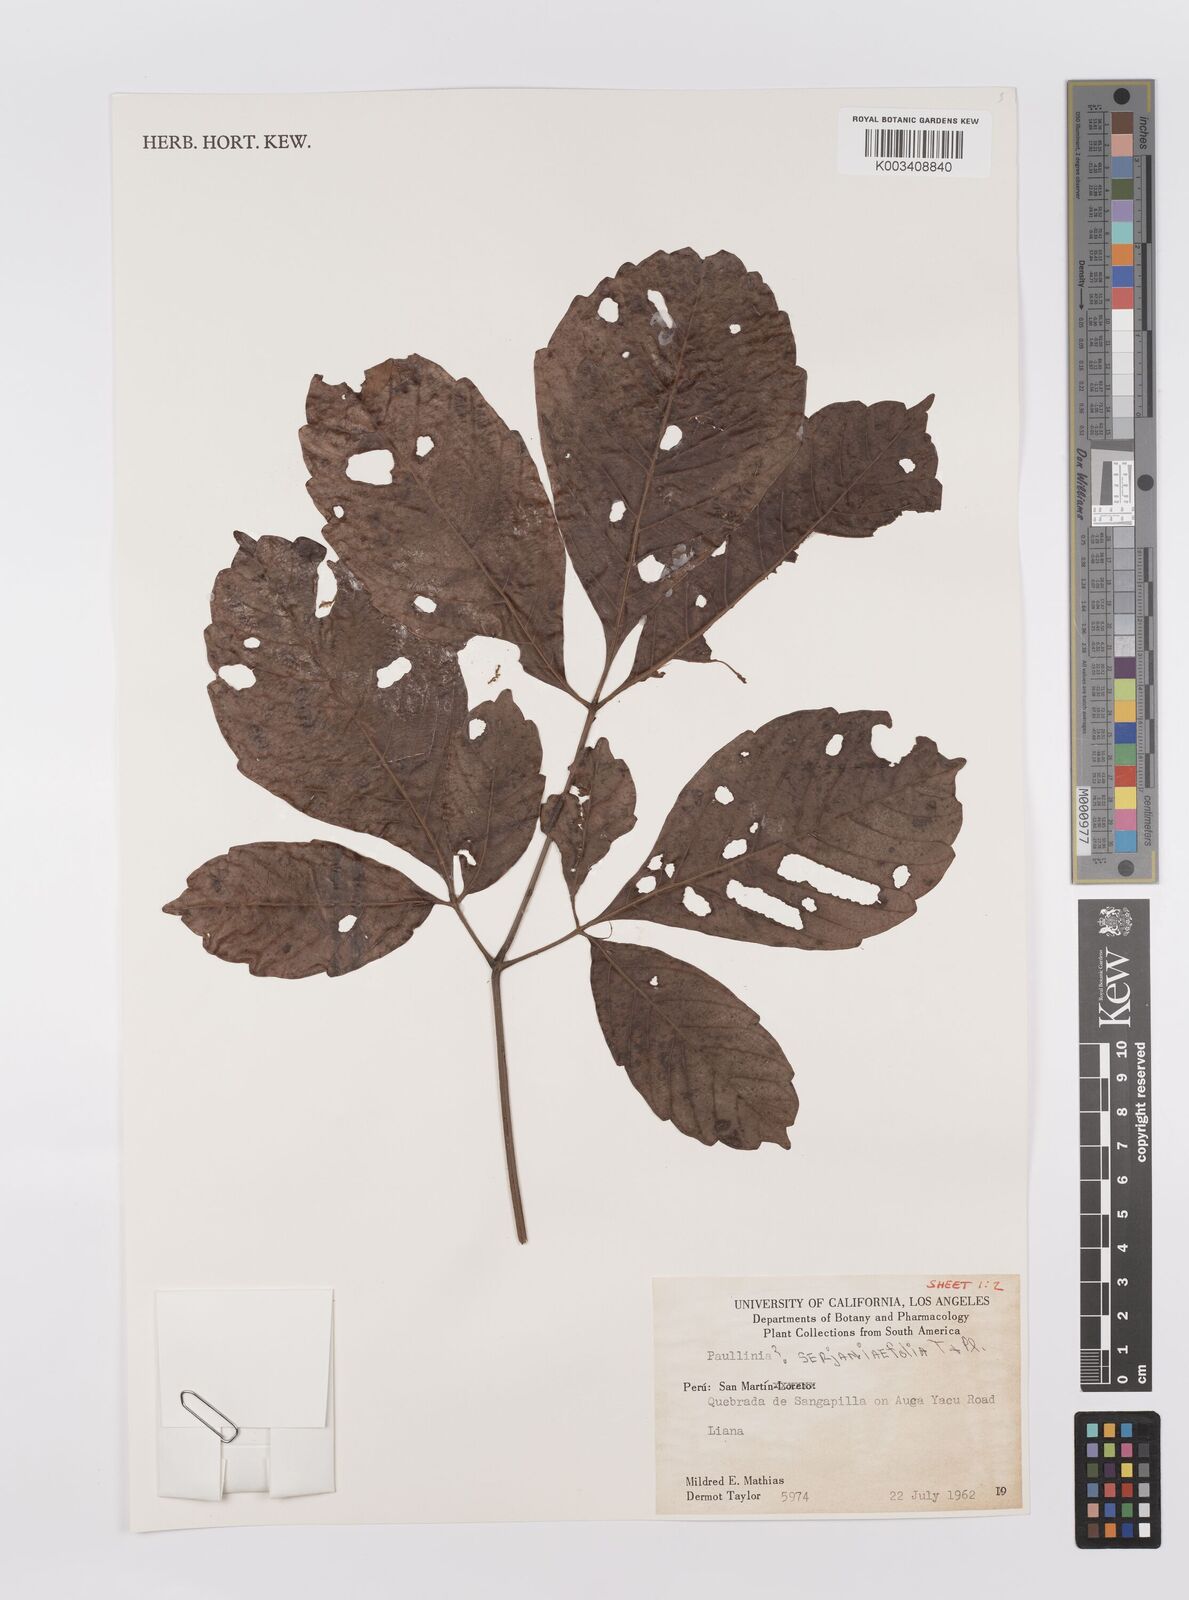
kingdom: Plantae
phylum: Tracheophyta
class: Magnoliopsida
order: Sapindales
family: Sapindaceae
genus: Paullinia
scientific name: Paullinia serjaniifolia
